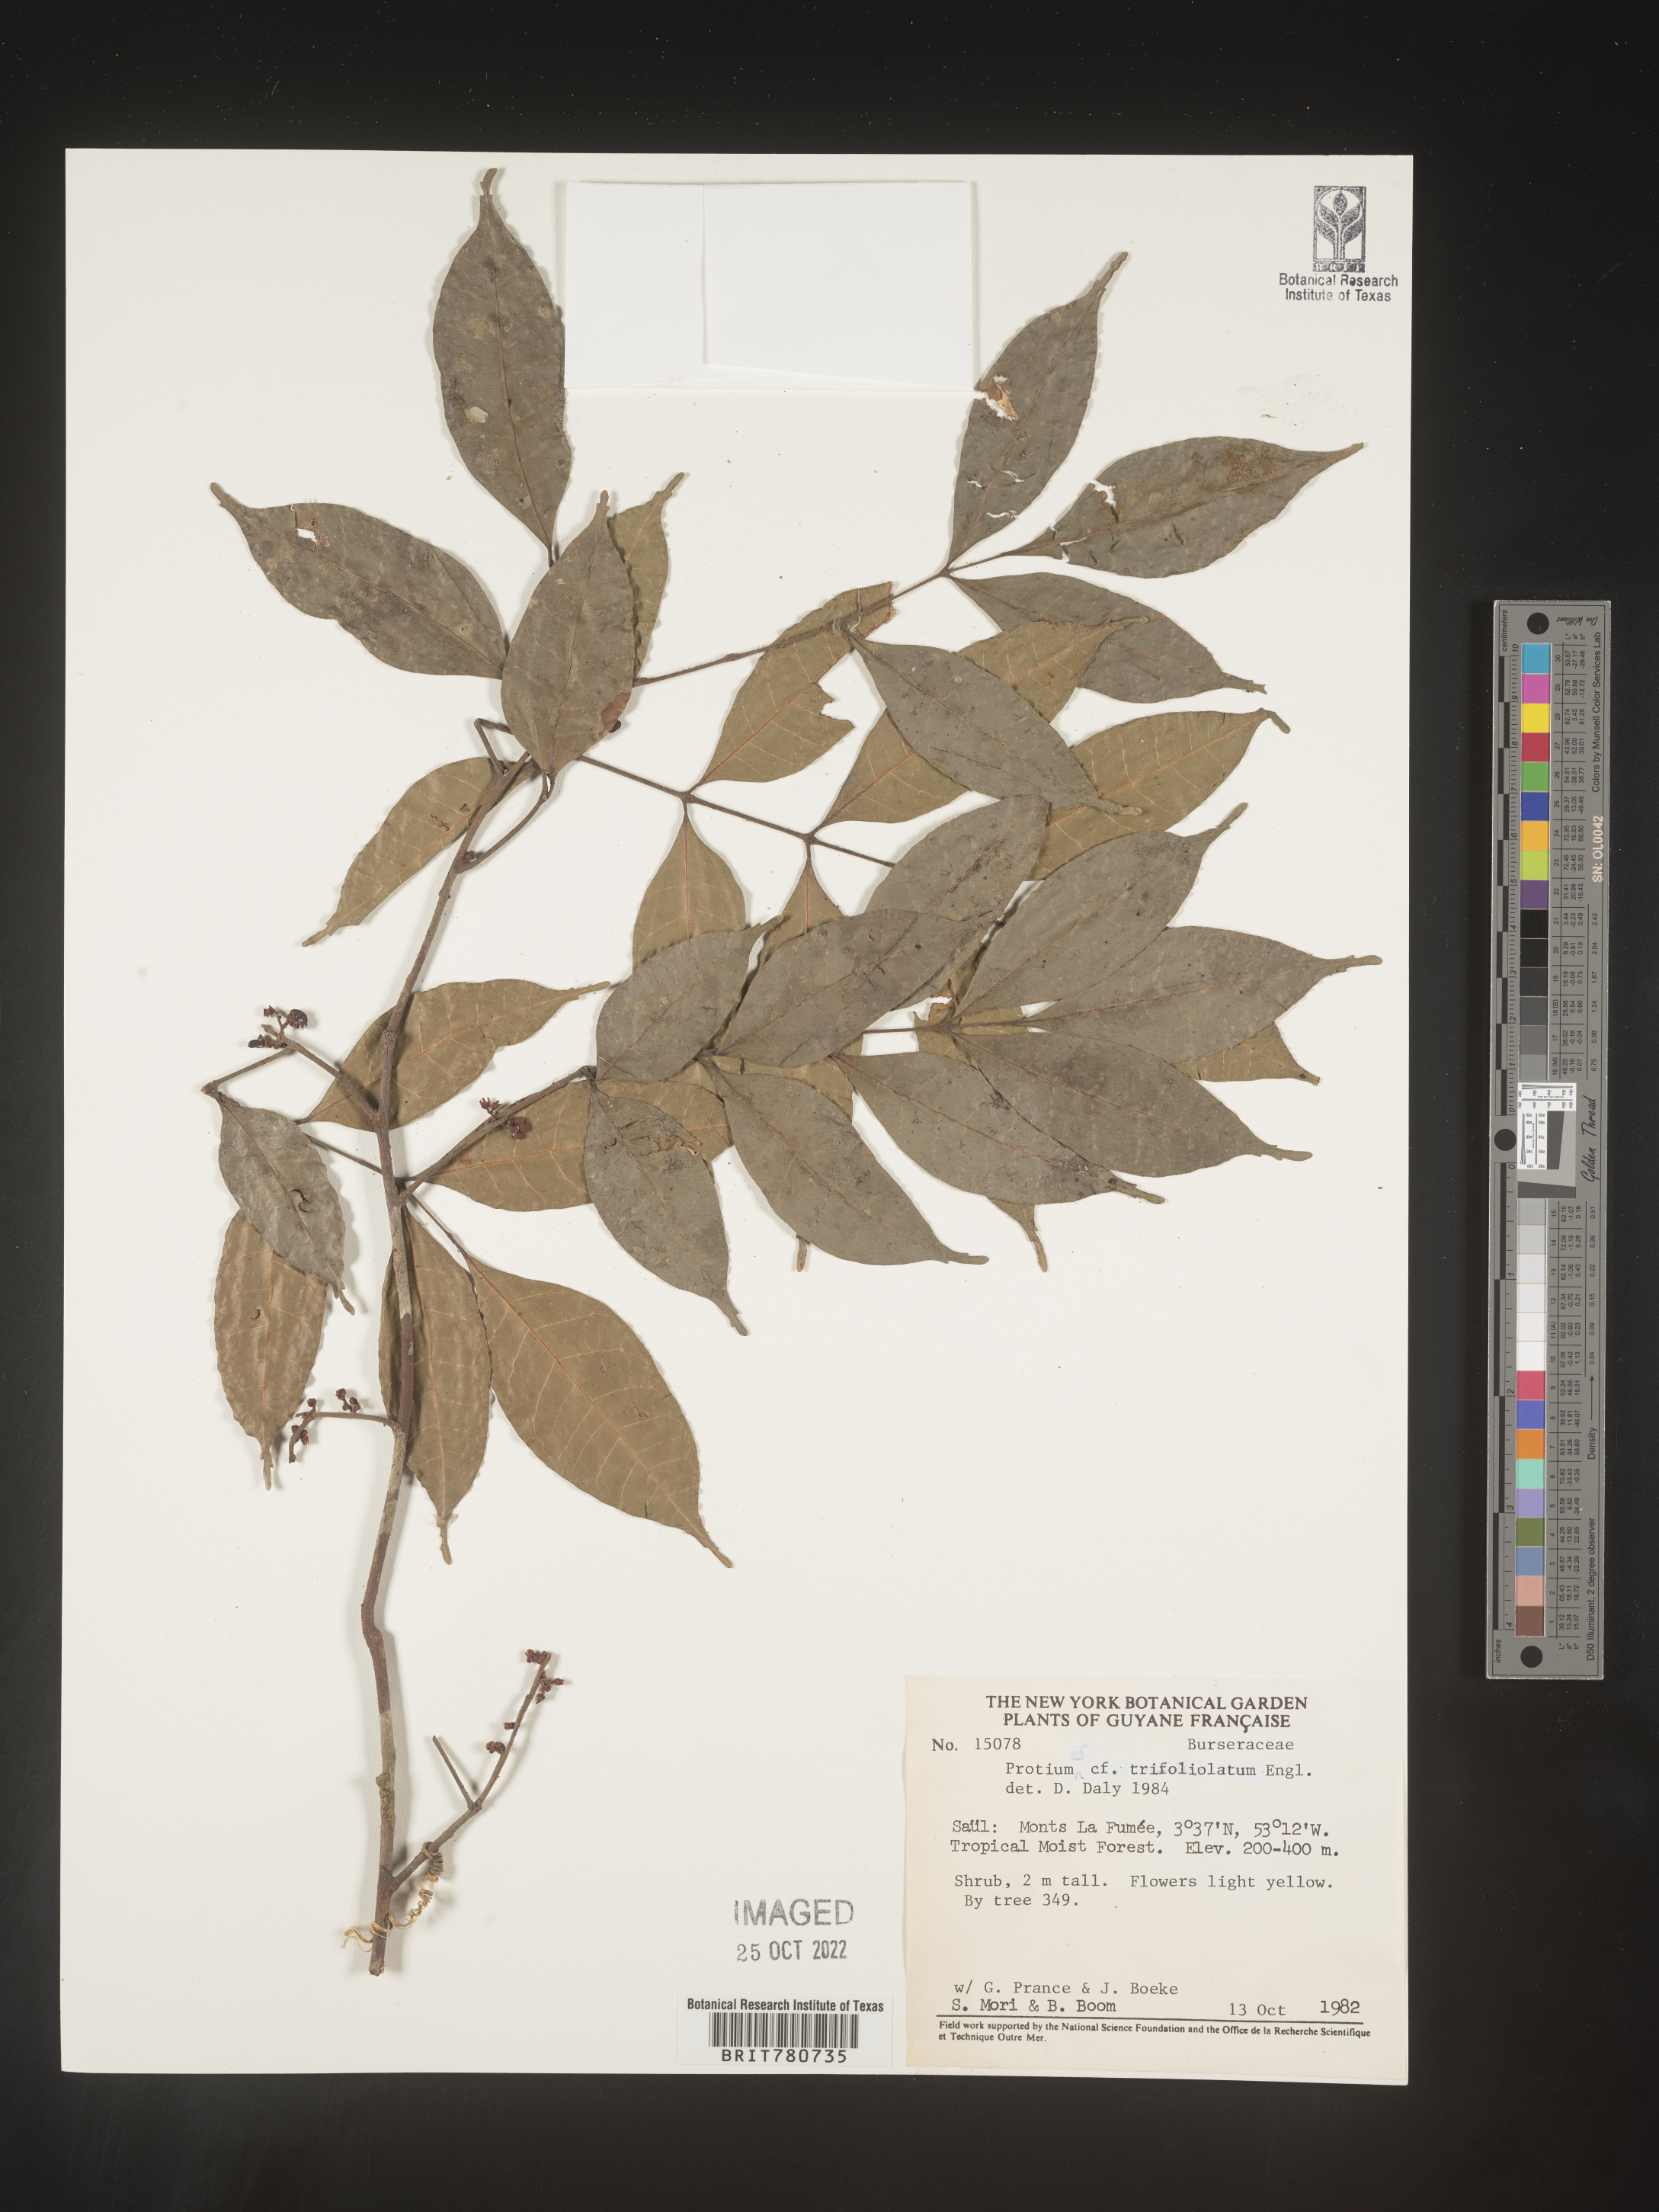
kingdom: Plantae
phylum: Tracheophyta
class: Magnoliopsida
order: Sapindales
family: Burseraceae
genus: Protium
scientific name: Protium
